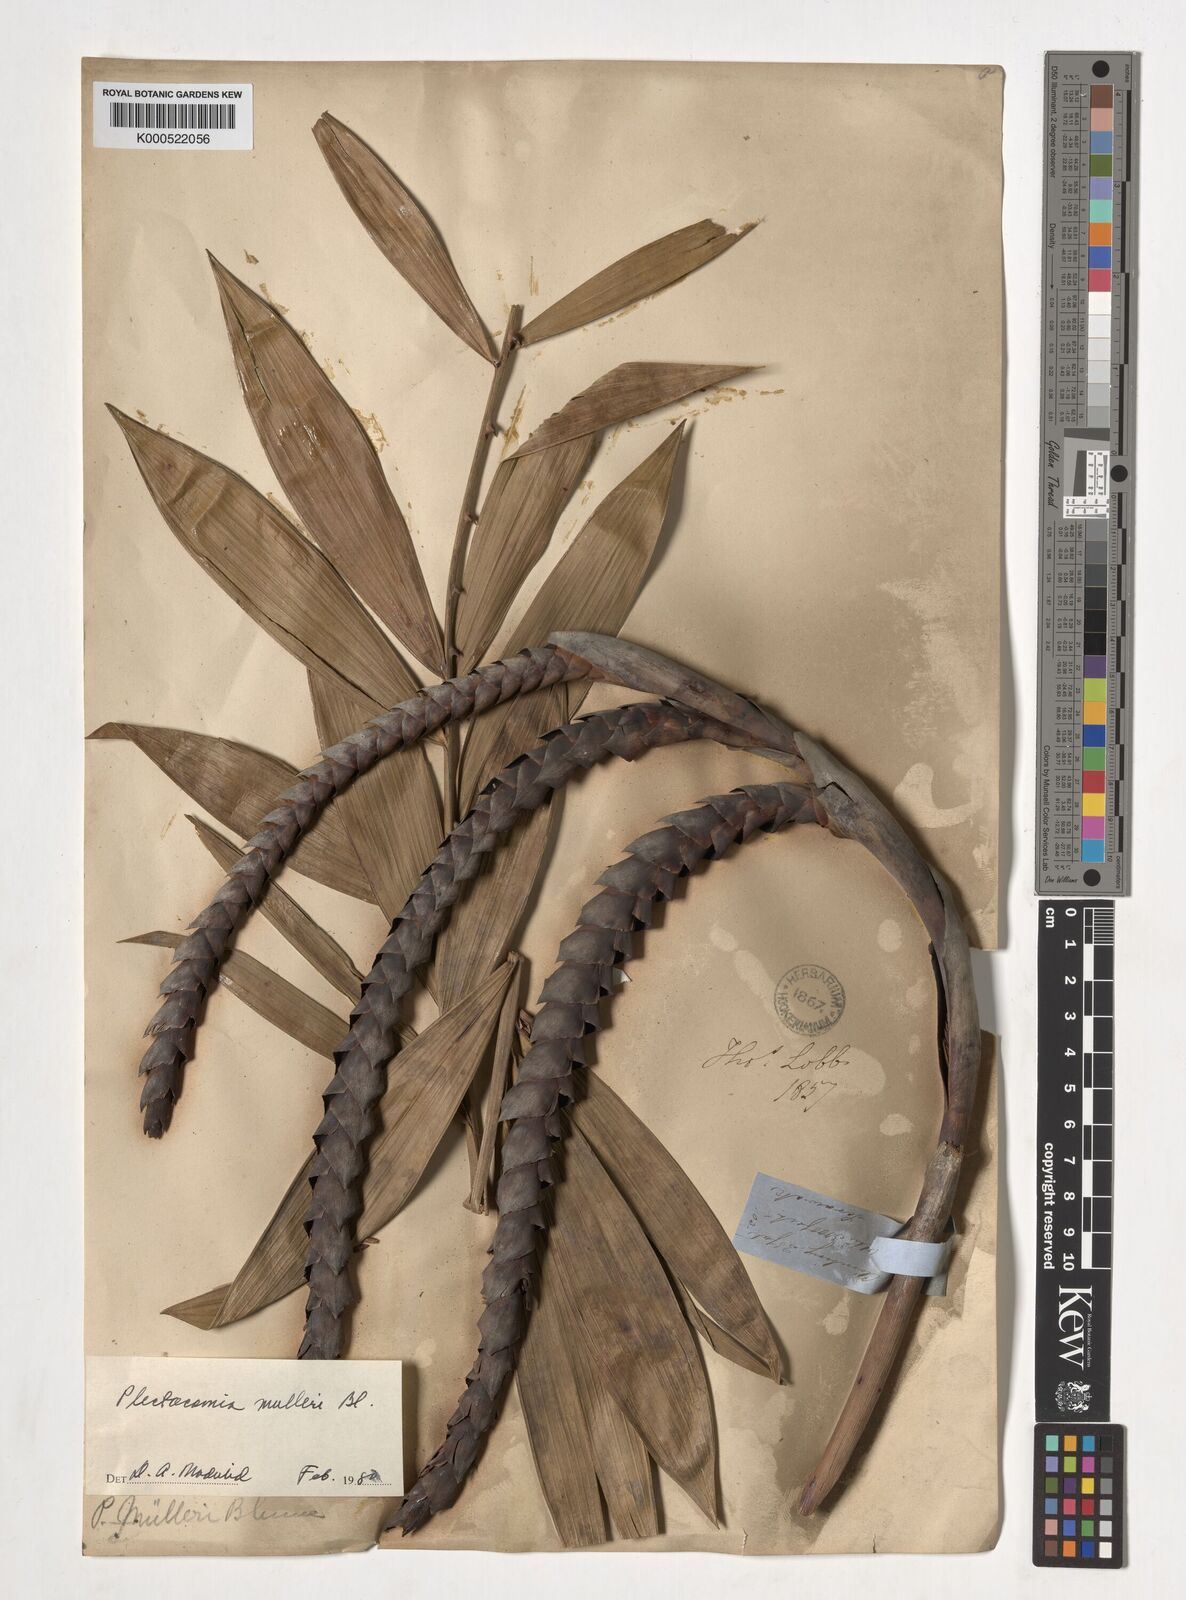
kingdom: Plantae
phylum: Tracheophyta
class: Liliopsida
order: Arecales
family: Arecaceae
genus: Plectocomia
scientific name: Plectocomia mulleri
